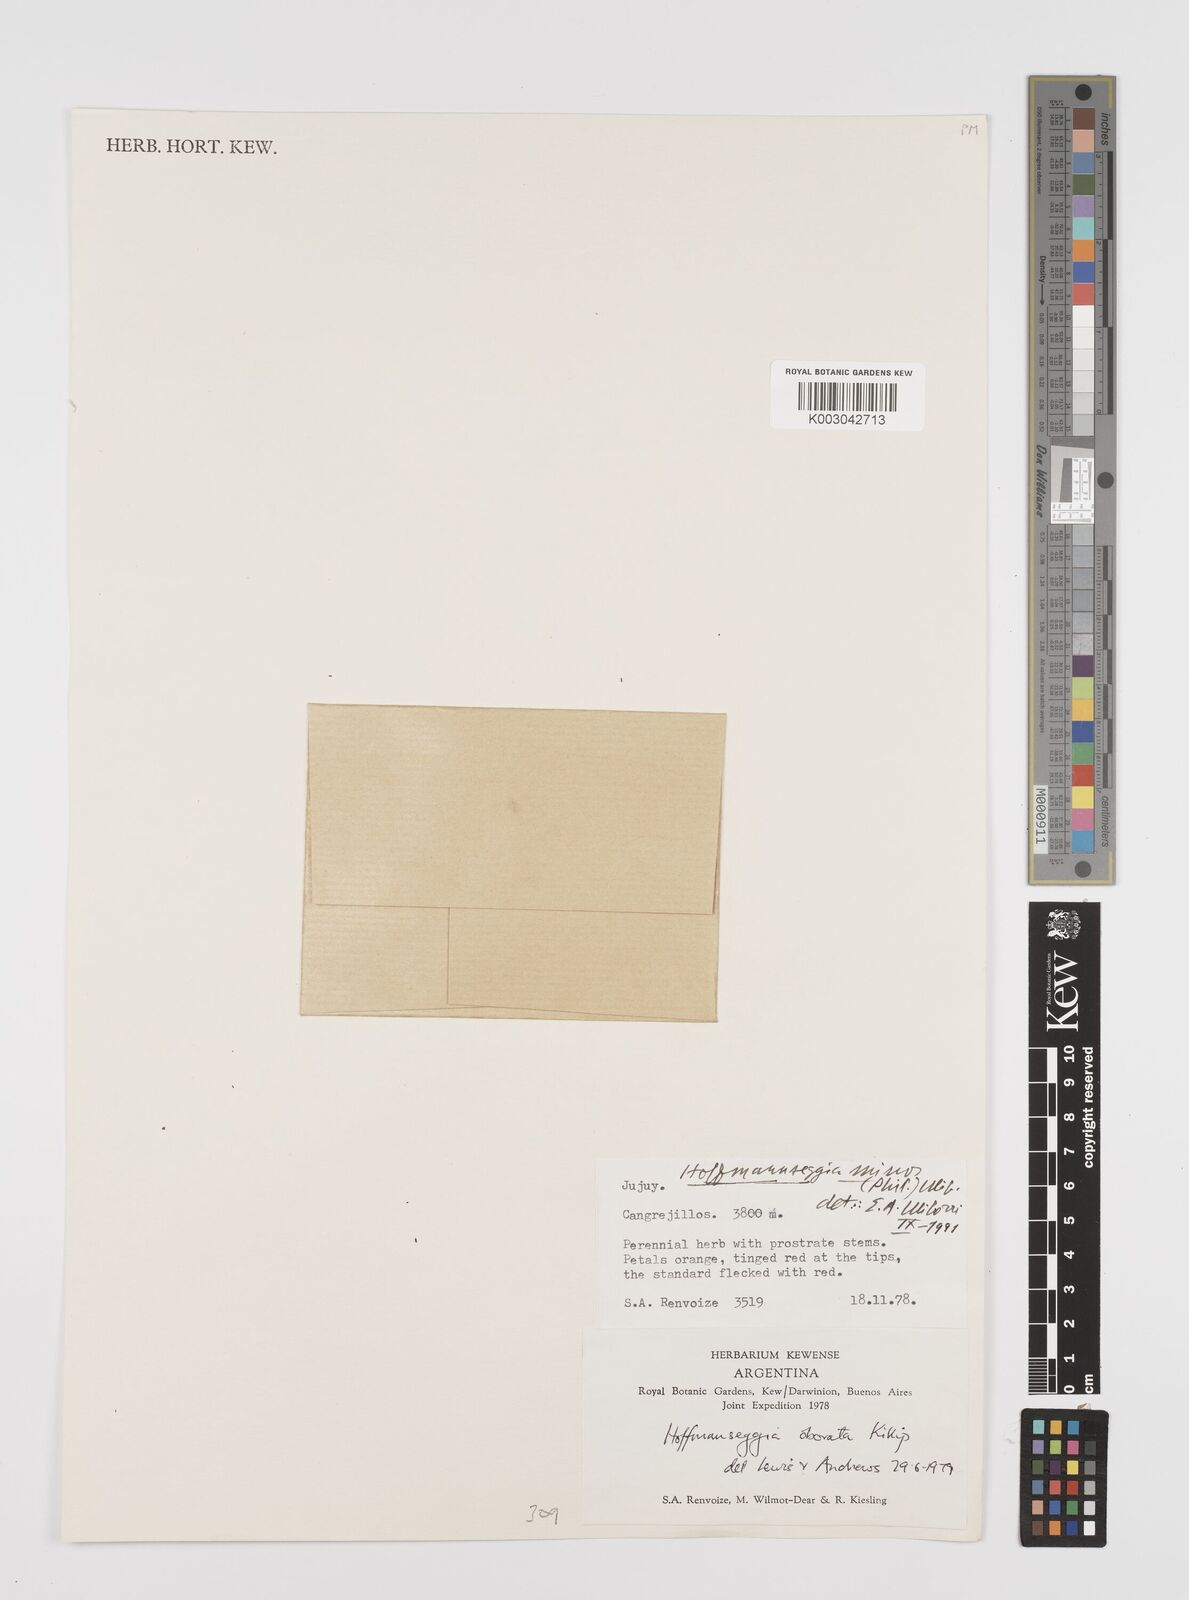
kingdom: Plantae
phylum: Tracheophyta
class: Magnoliopsida
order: Fabales
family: Fabaceae
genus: Hoffmannseggia
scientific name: Hoffmannseggia minor
